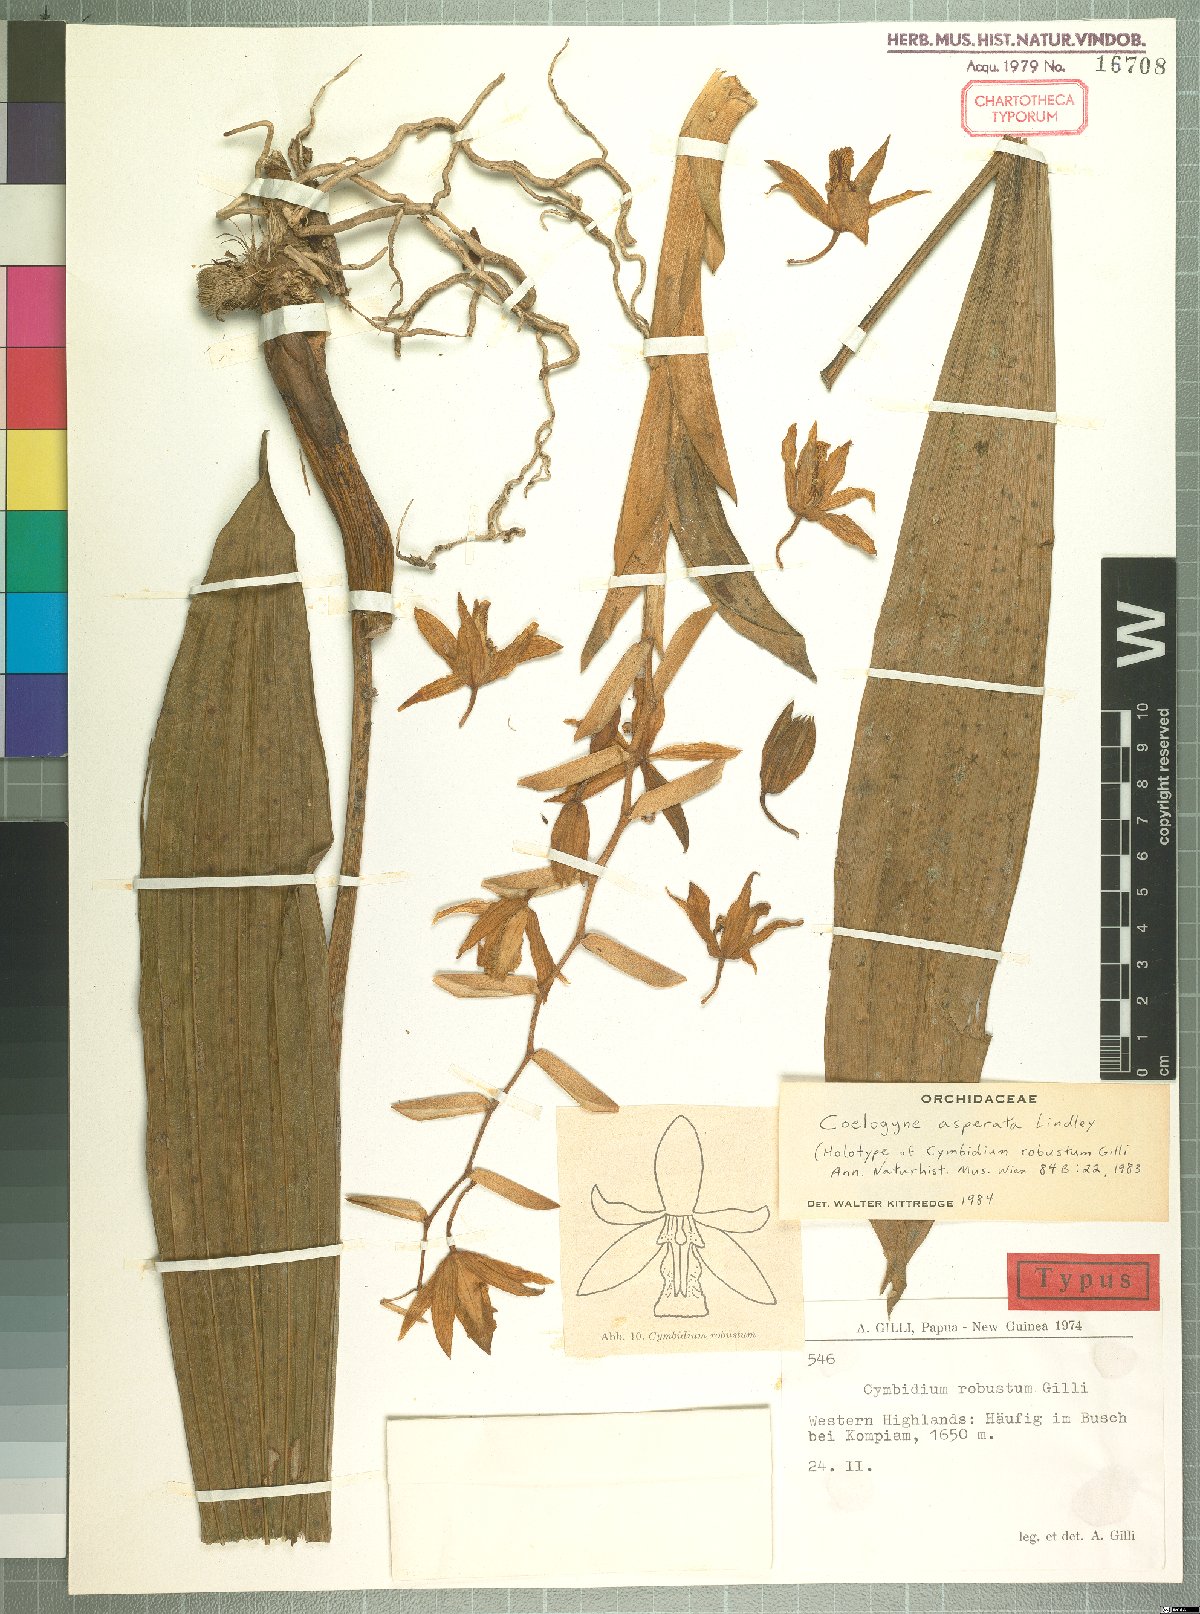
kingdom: Plantae
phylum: Tracheophyta
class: Liliopsida
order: Asparagales
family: Orchidaceae
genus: Coelogyne
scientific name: Coelogyne asperata
